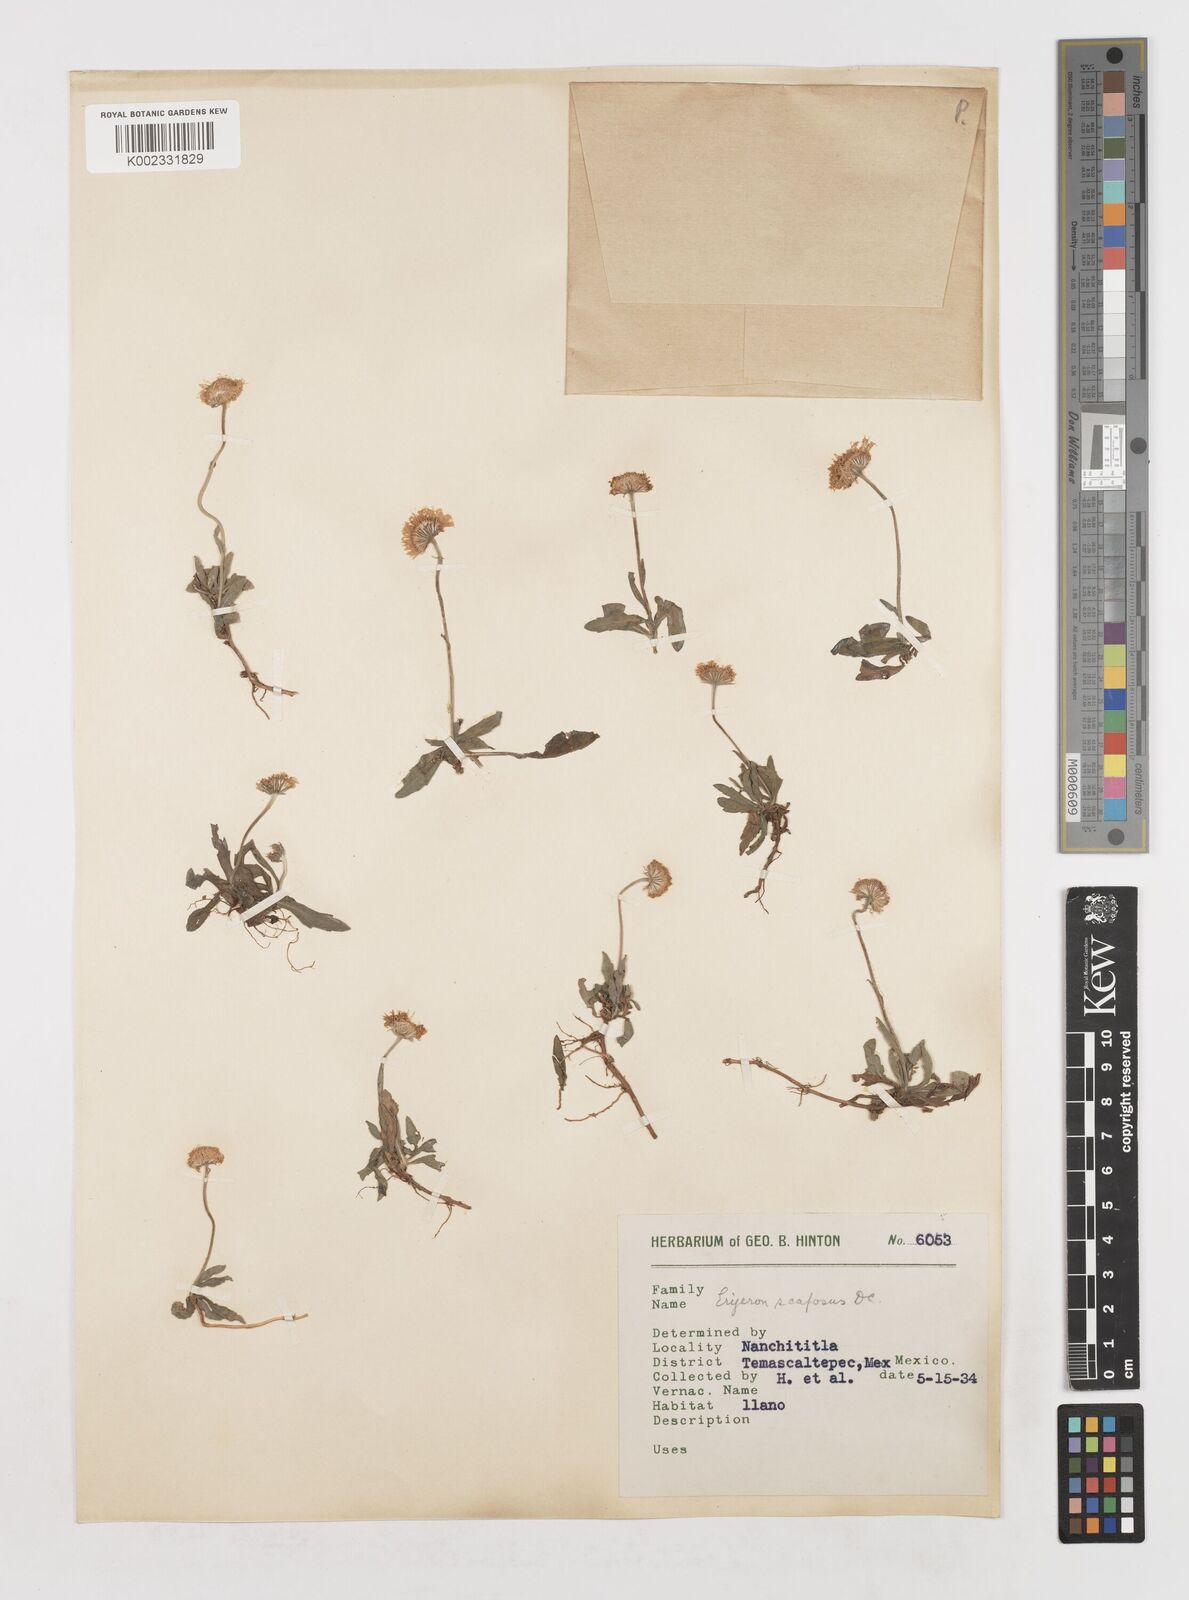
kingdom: Plantae
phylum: Tracheophyta
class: Magnoliopsida
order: Asterales
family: Asteraceae
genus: Erigeron
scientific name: Erigeron longipes
